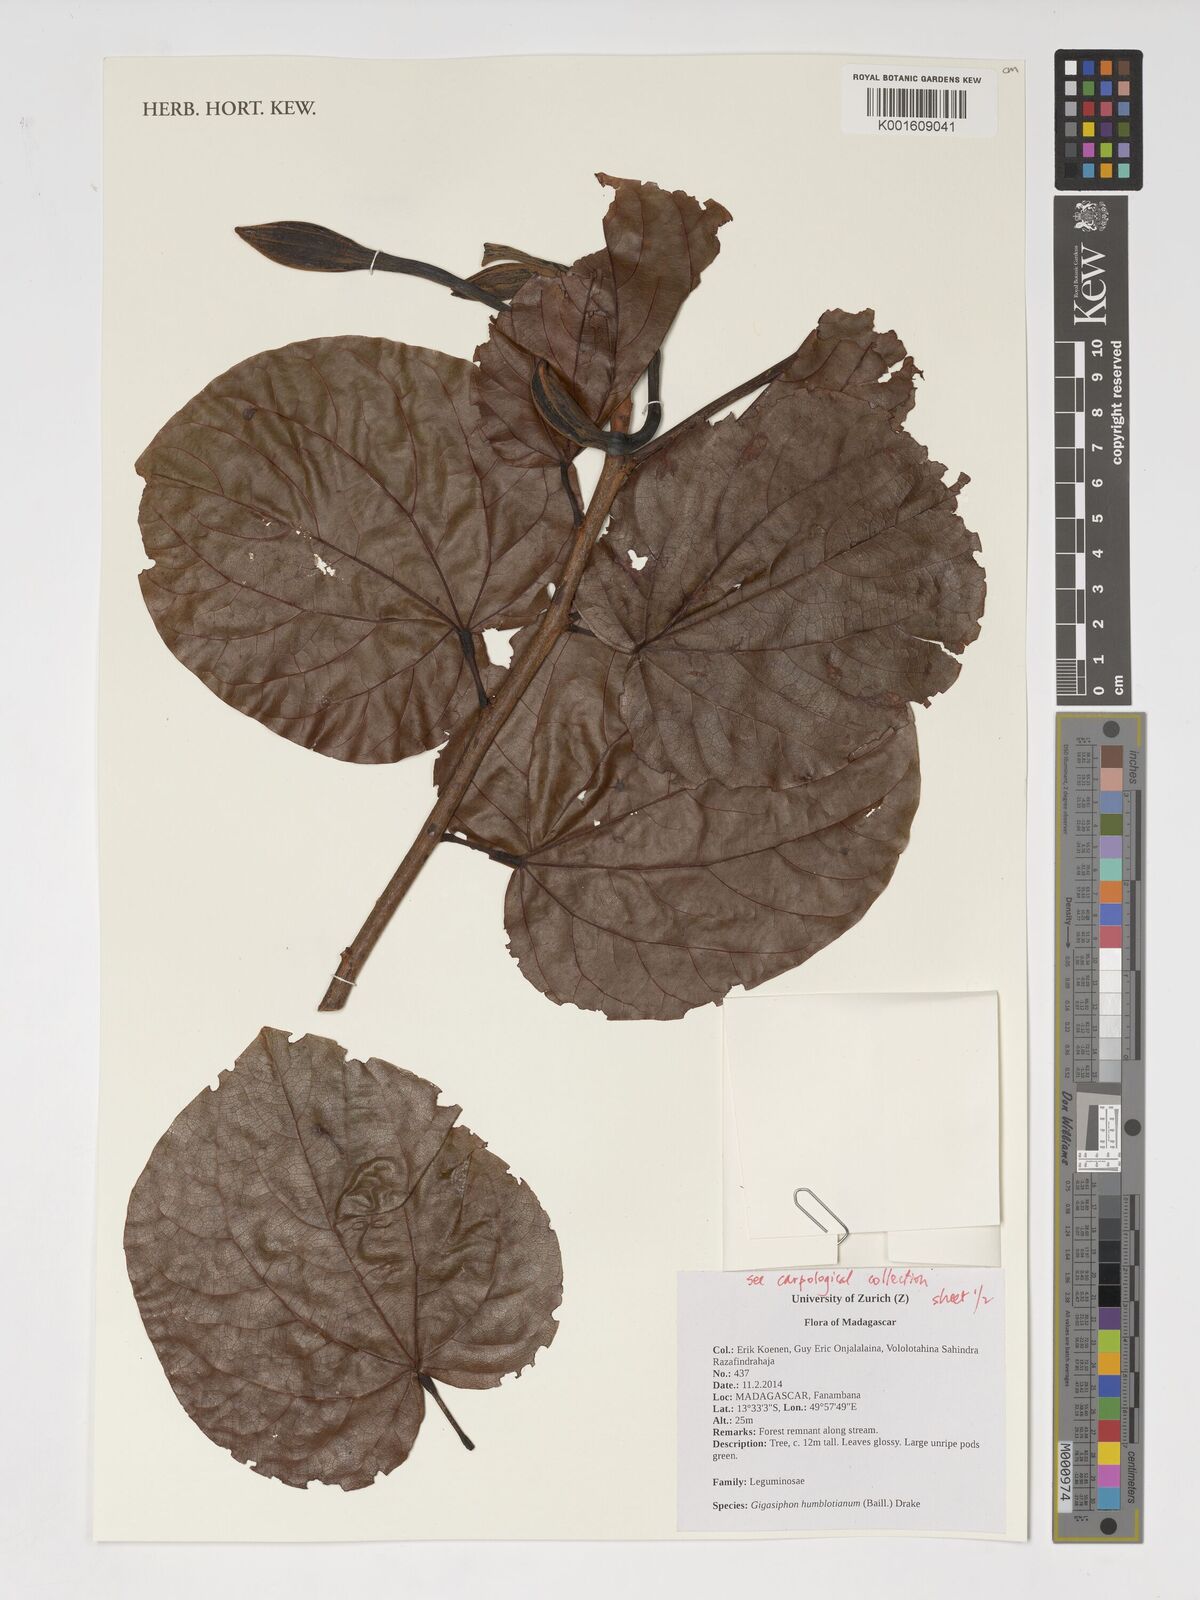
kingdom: Plantae
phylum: Tracheophyta
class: Magnoliopsida
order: Fabales
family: Fabaceae
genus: Gigasiphon
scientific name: Gigasiphon humblotianum
